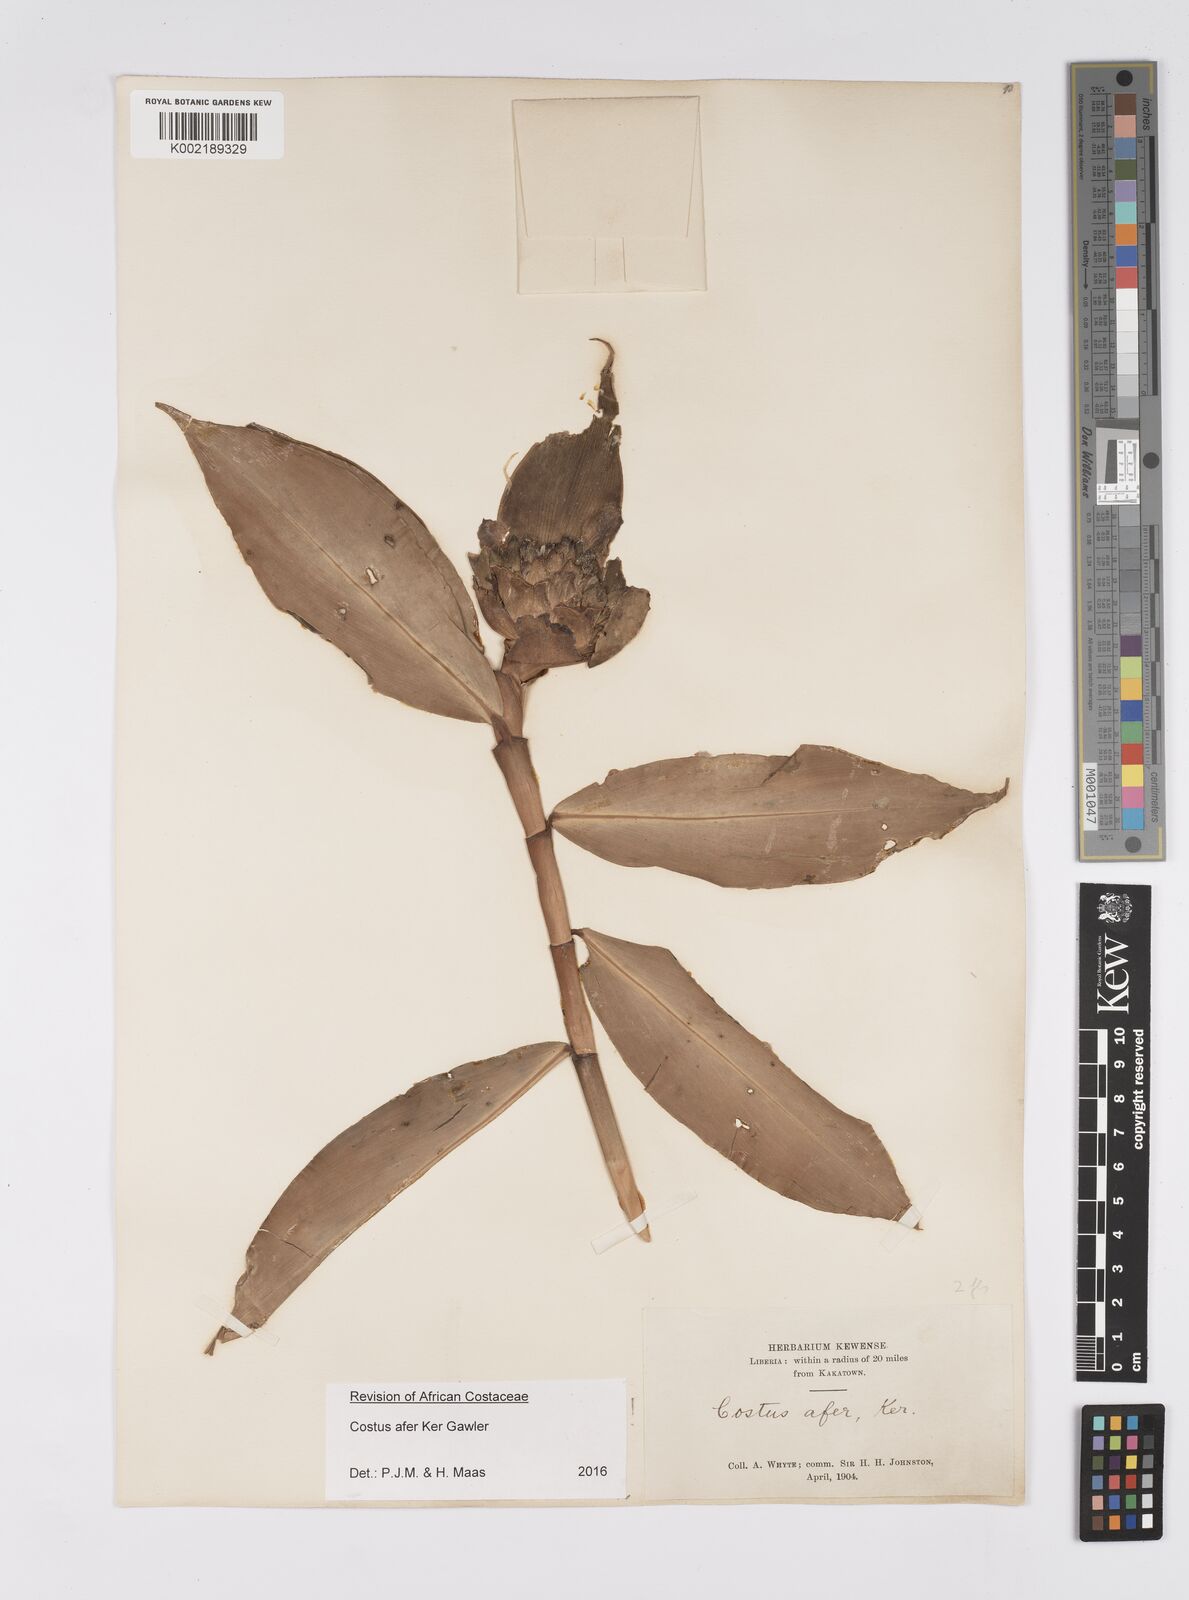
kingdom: Plantae
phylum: Tracheophyta
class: Liliopsida
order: Zingiberales
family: Costaceae
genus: Costus
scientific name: Costus afer
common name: Spiral-ginger
